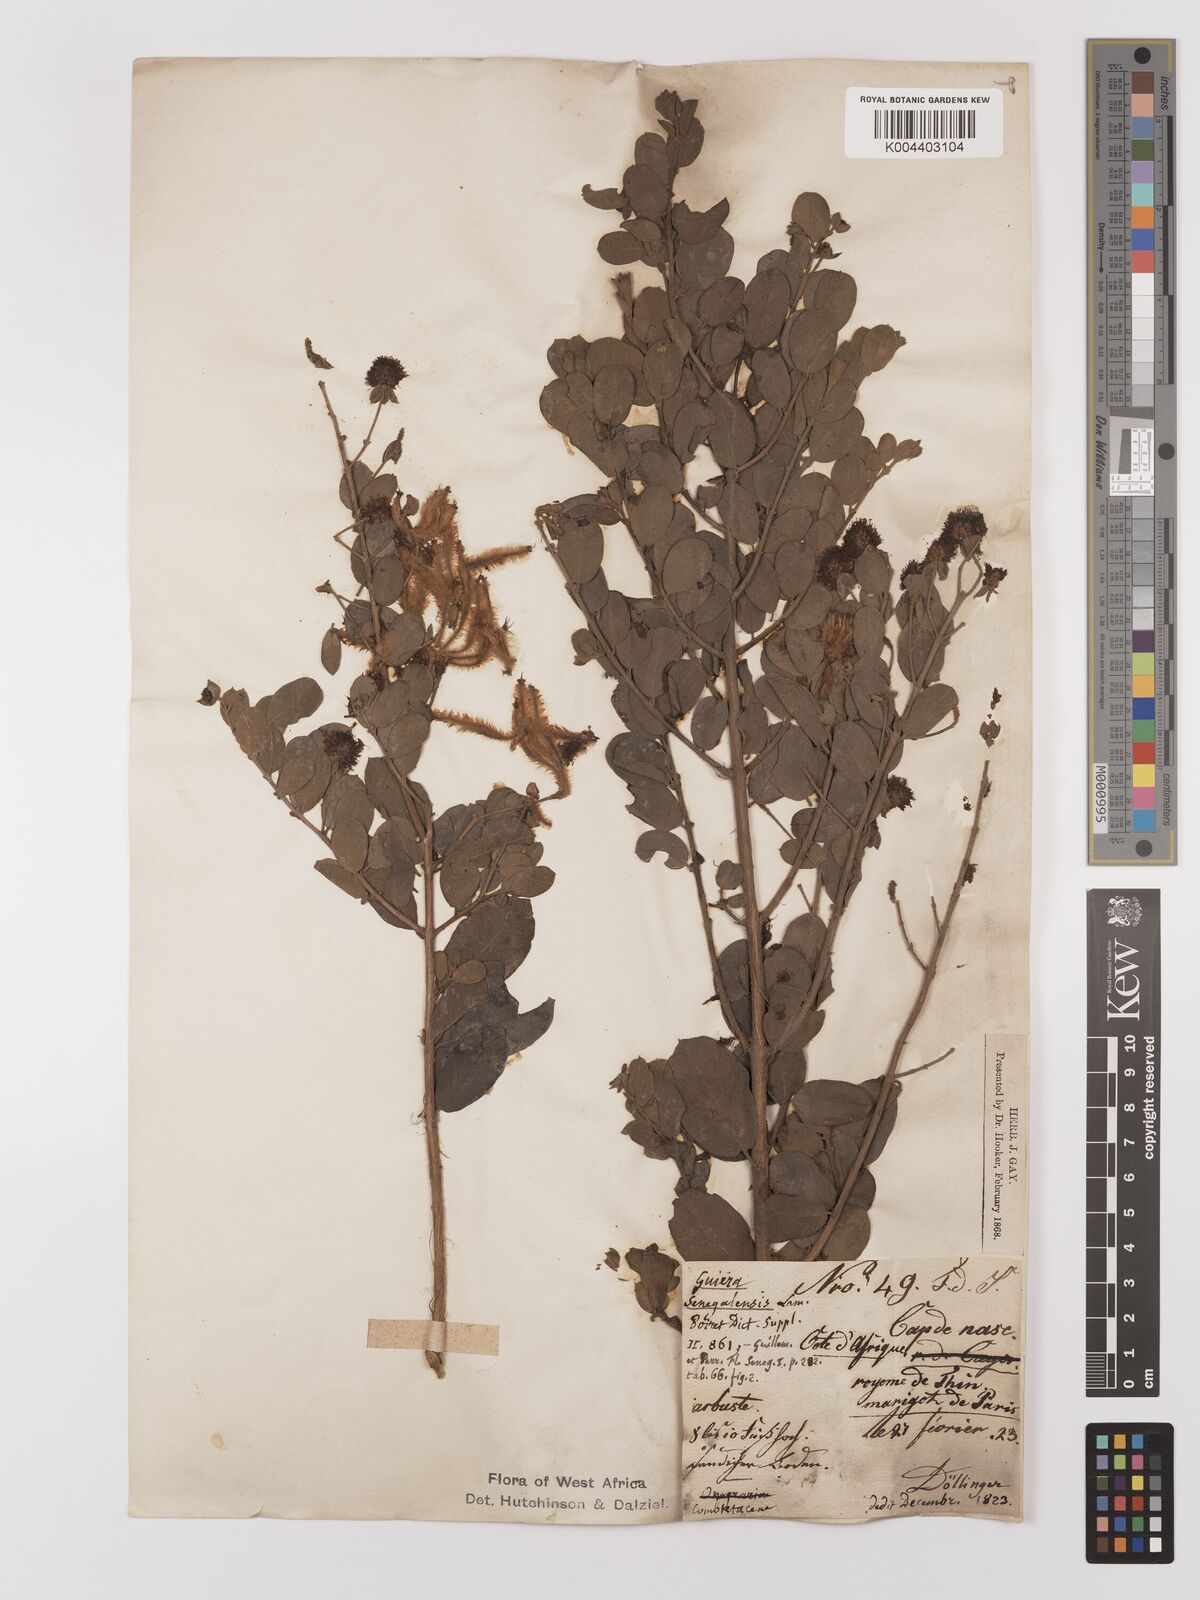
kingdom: Plantae
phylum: Tracheophyta
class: Magnoliopsida
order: Myrtales
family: Combretaceae
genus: Guiera
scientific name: Guiera senegalensis
